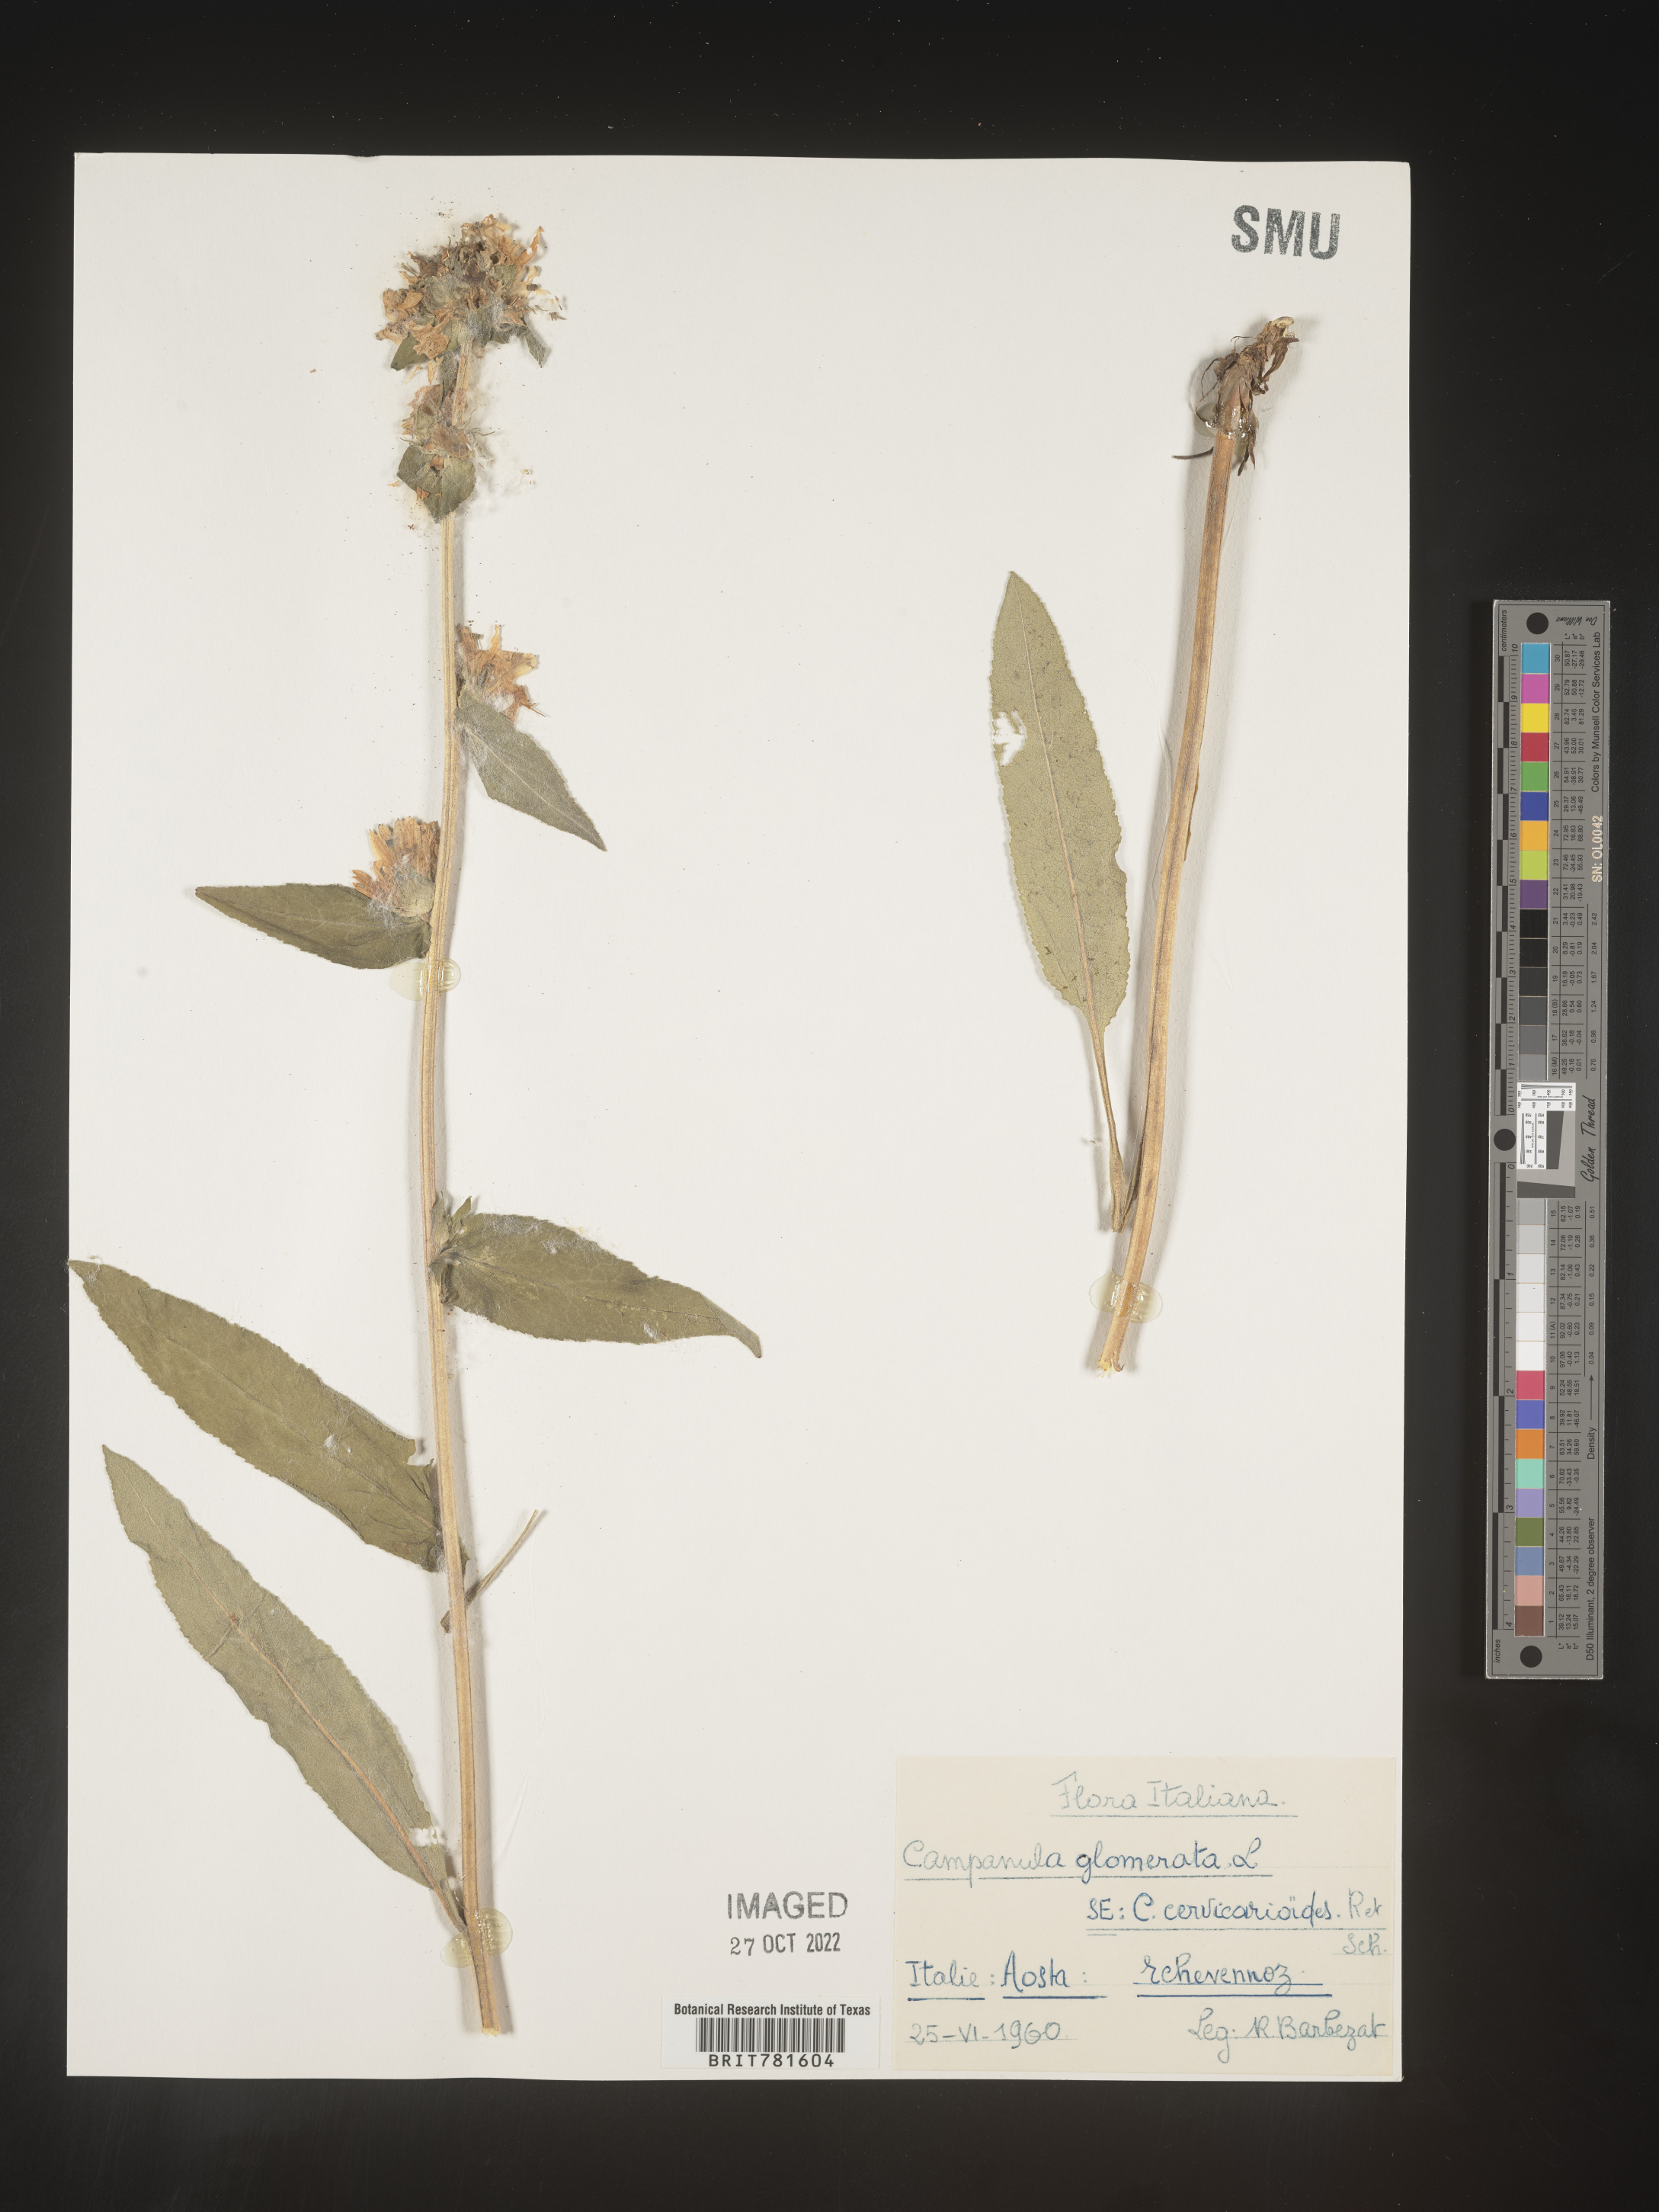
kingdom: Plantae
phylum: Tracheophyta
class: Magnoliopsida
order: Asterales
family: Campanulaceae
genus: Campanula
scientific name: Campanula
